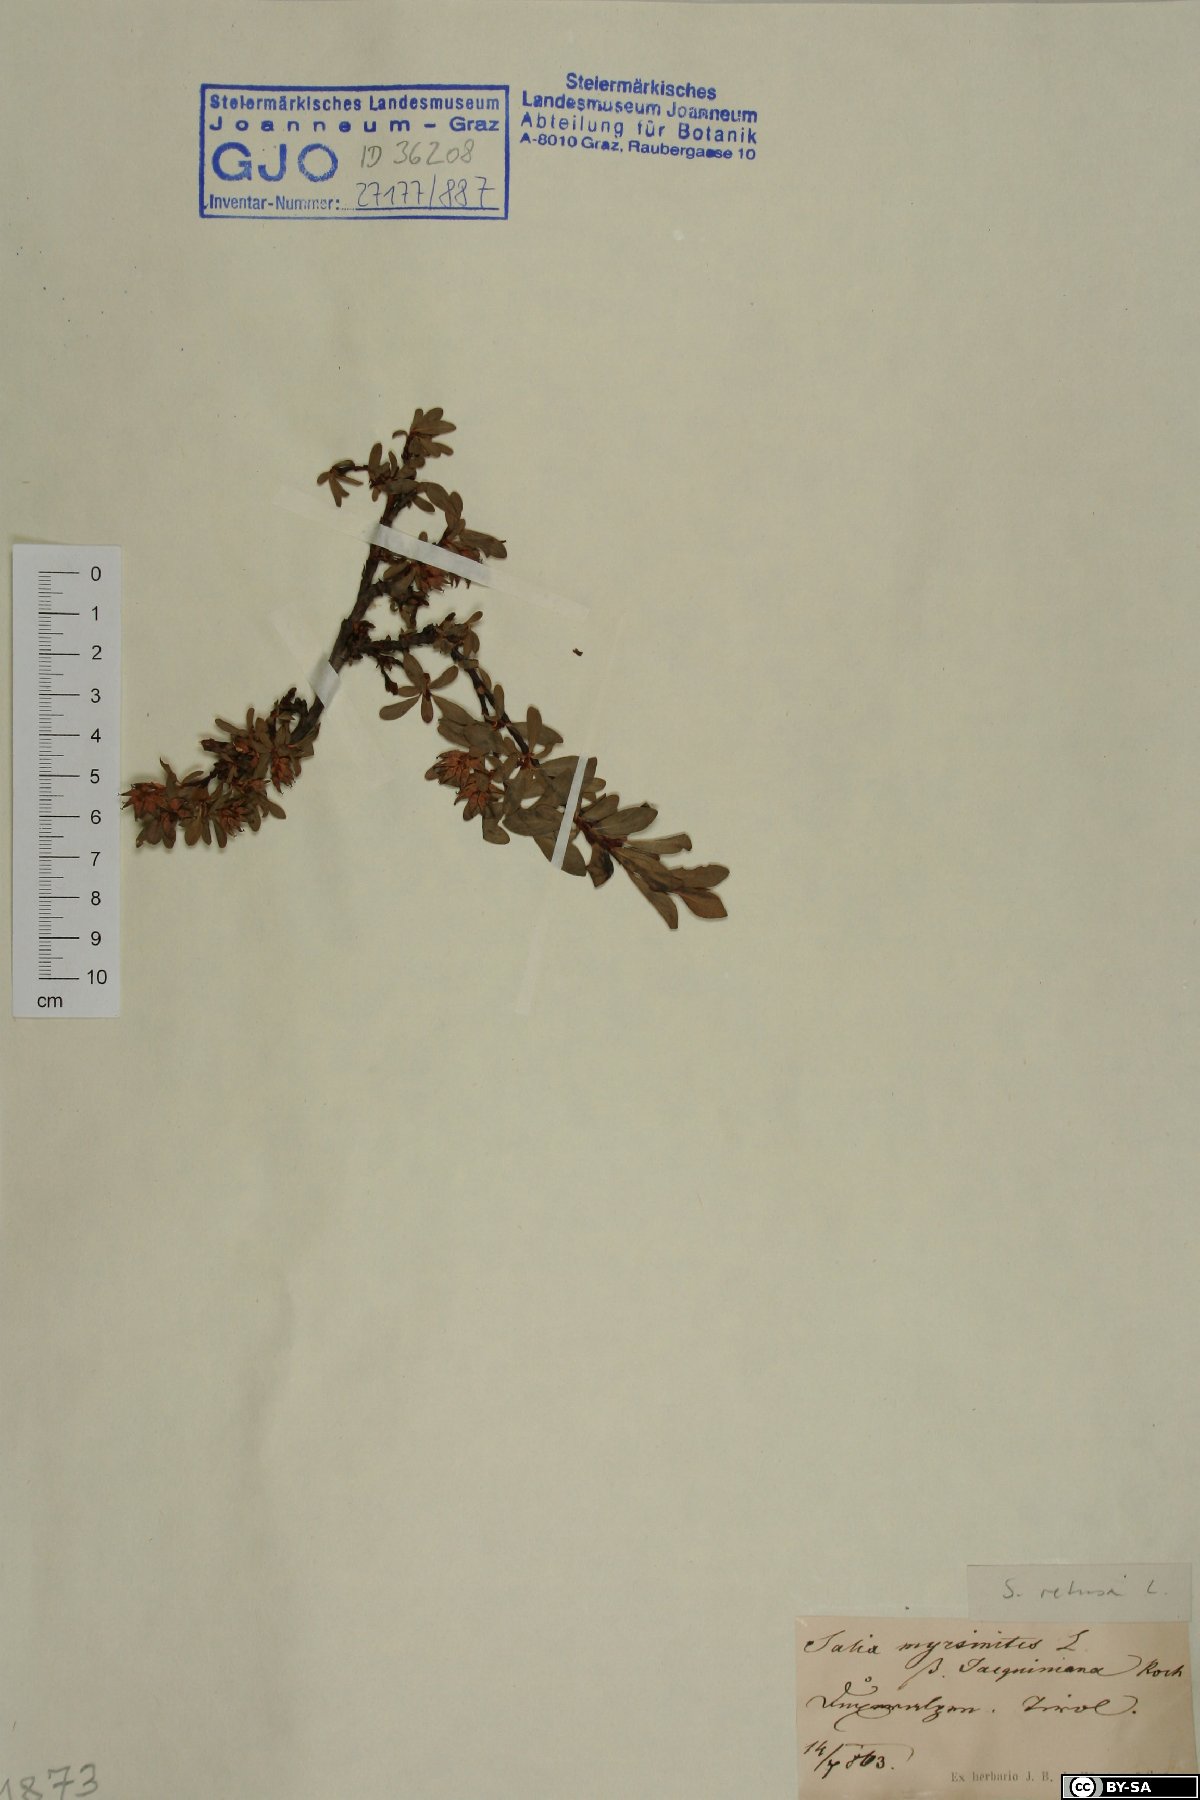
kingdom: Plantae
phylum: Tracheophyta
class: Magnoliopsida
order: Malpighiales
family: Salicaceae
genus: Salix
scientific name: Salix retusa
